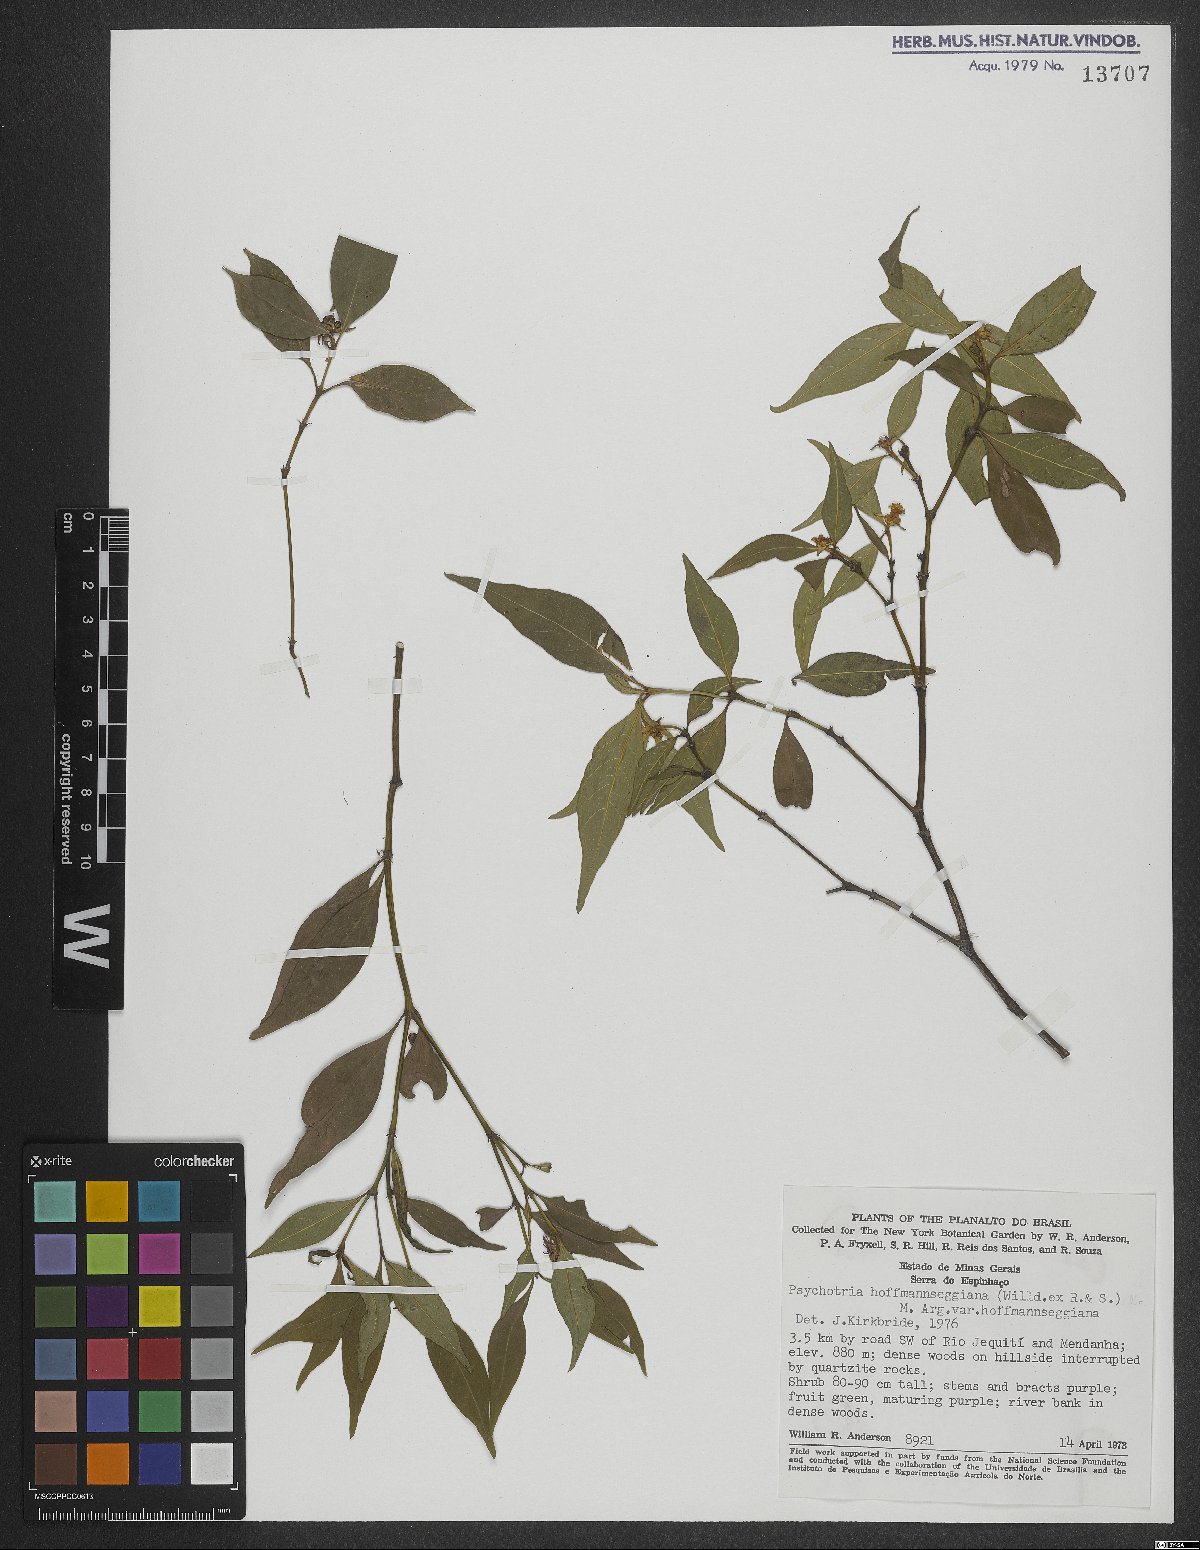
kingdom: Plantae
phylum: Tracheophyta
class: Magnoliopsida
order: Gentianales
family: Rubiaceae
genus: Palicourea
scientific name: Palicourea hoffmannseggiana
